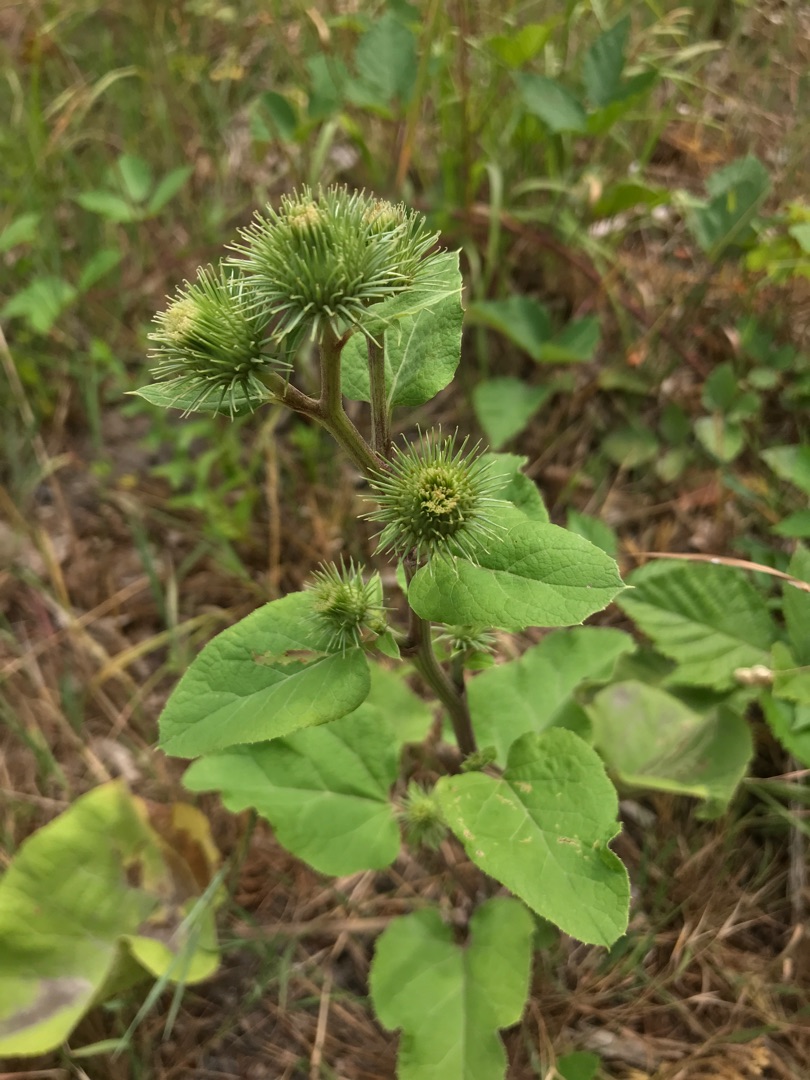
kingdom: Plantae
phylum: Tracheophyta
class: Magnoliopsida
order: Asterales
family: Asteraceae
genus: Arctium
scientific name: Arctium lappa
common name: Glat burre
